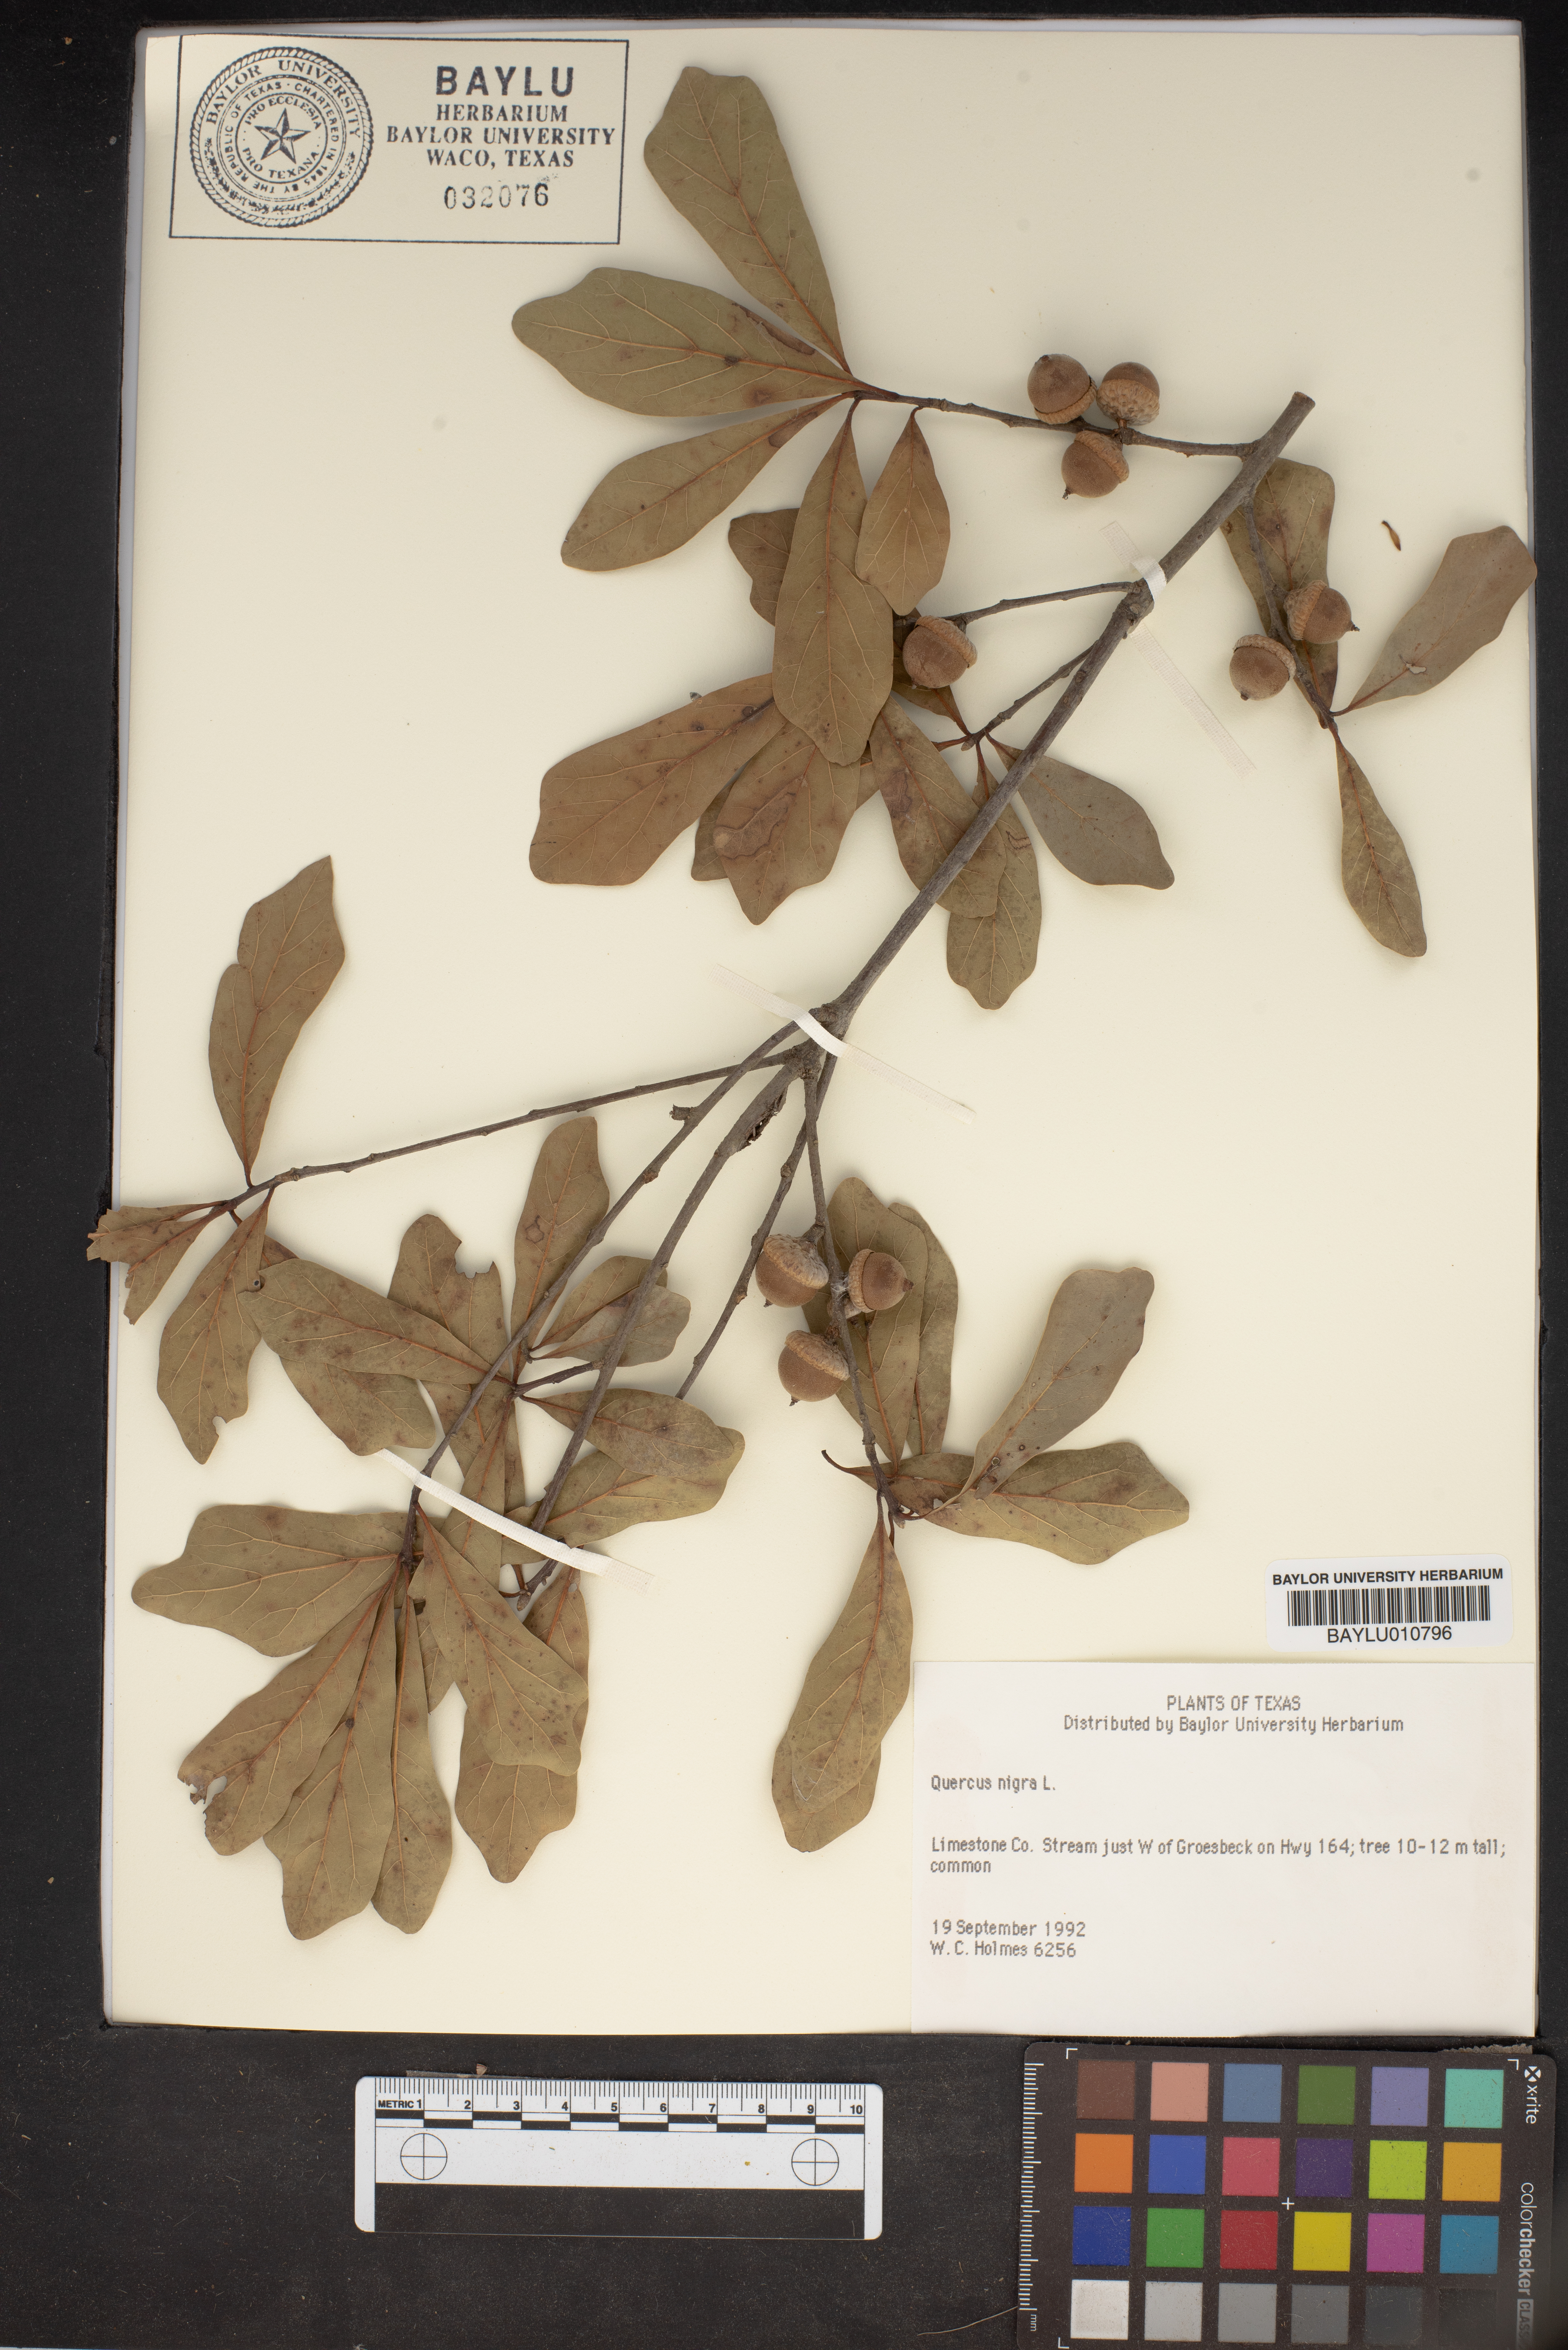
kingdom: Plantae
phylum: Tracheophyta
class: Magnoliopsida
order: Fagales
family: Fagaceae
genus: Quercus
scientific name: Quercus nigra
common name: Water oak
